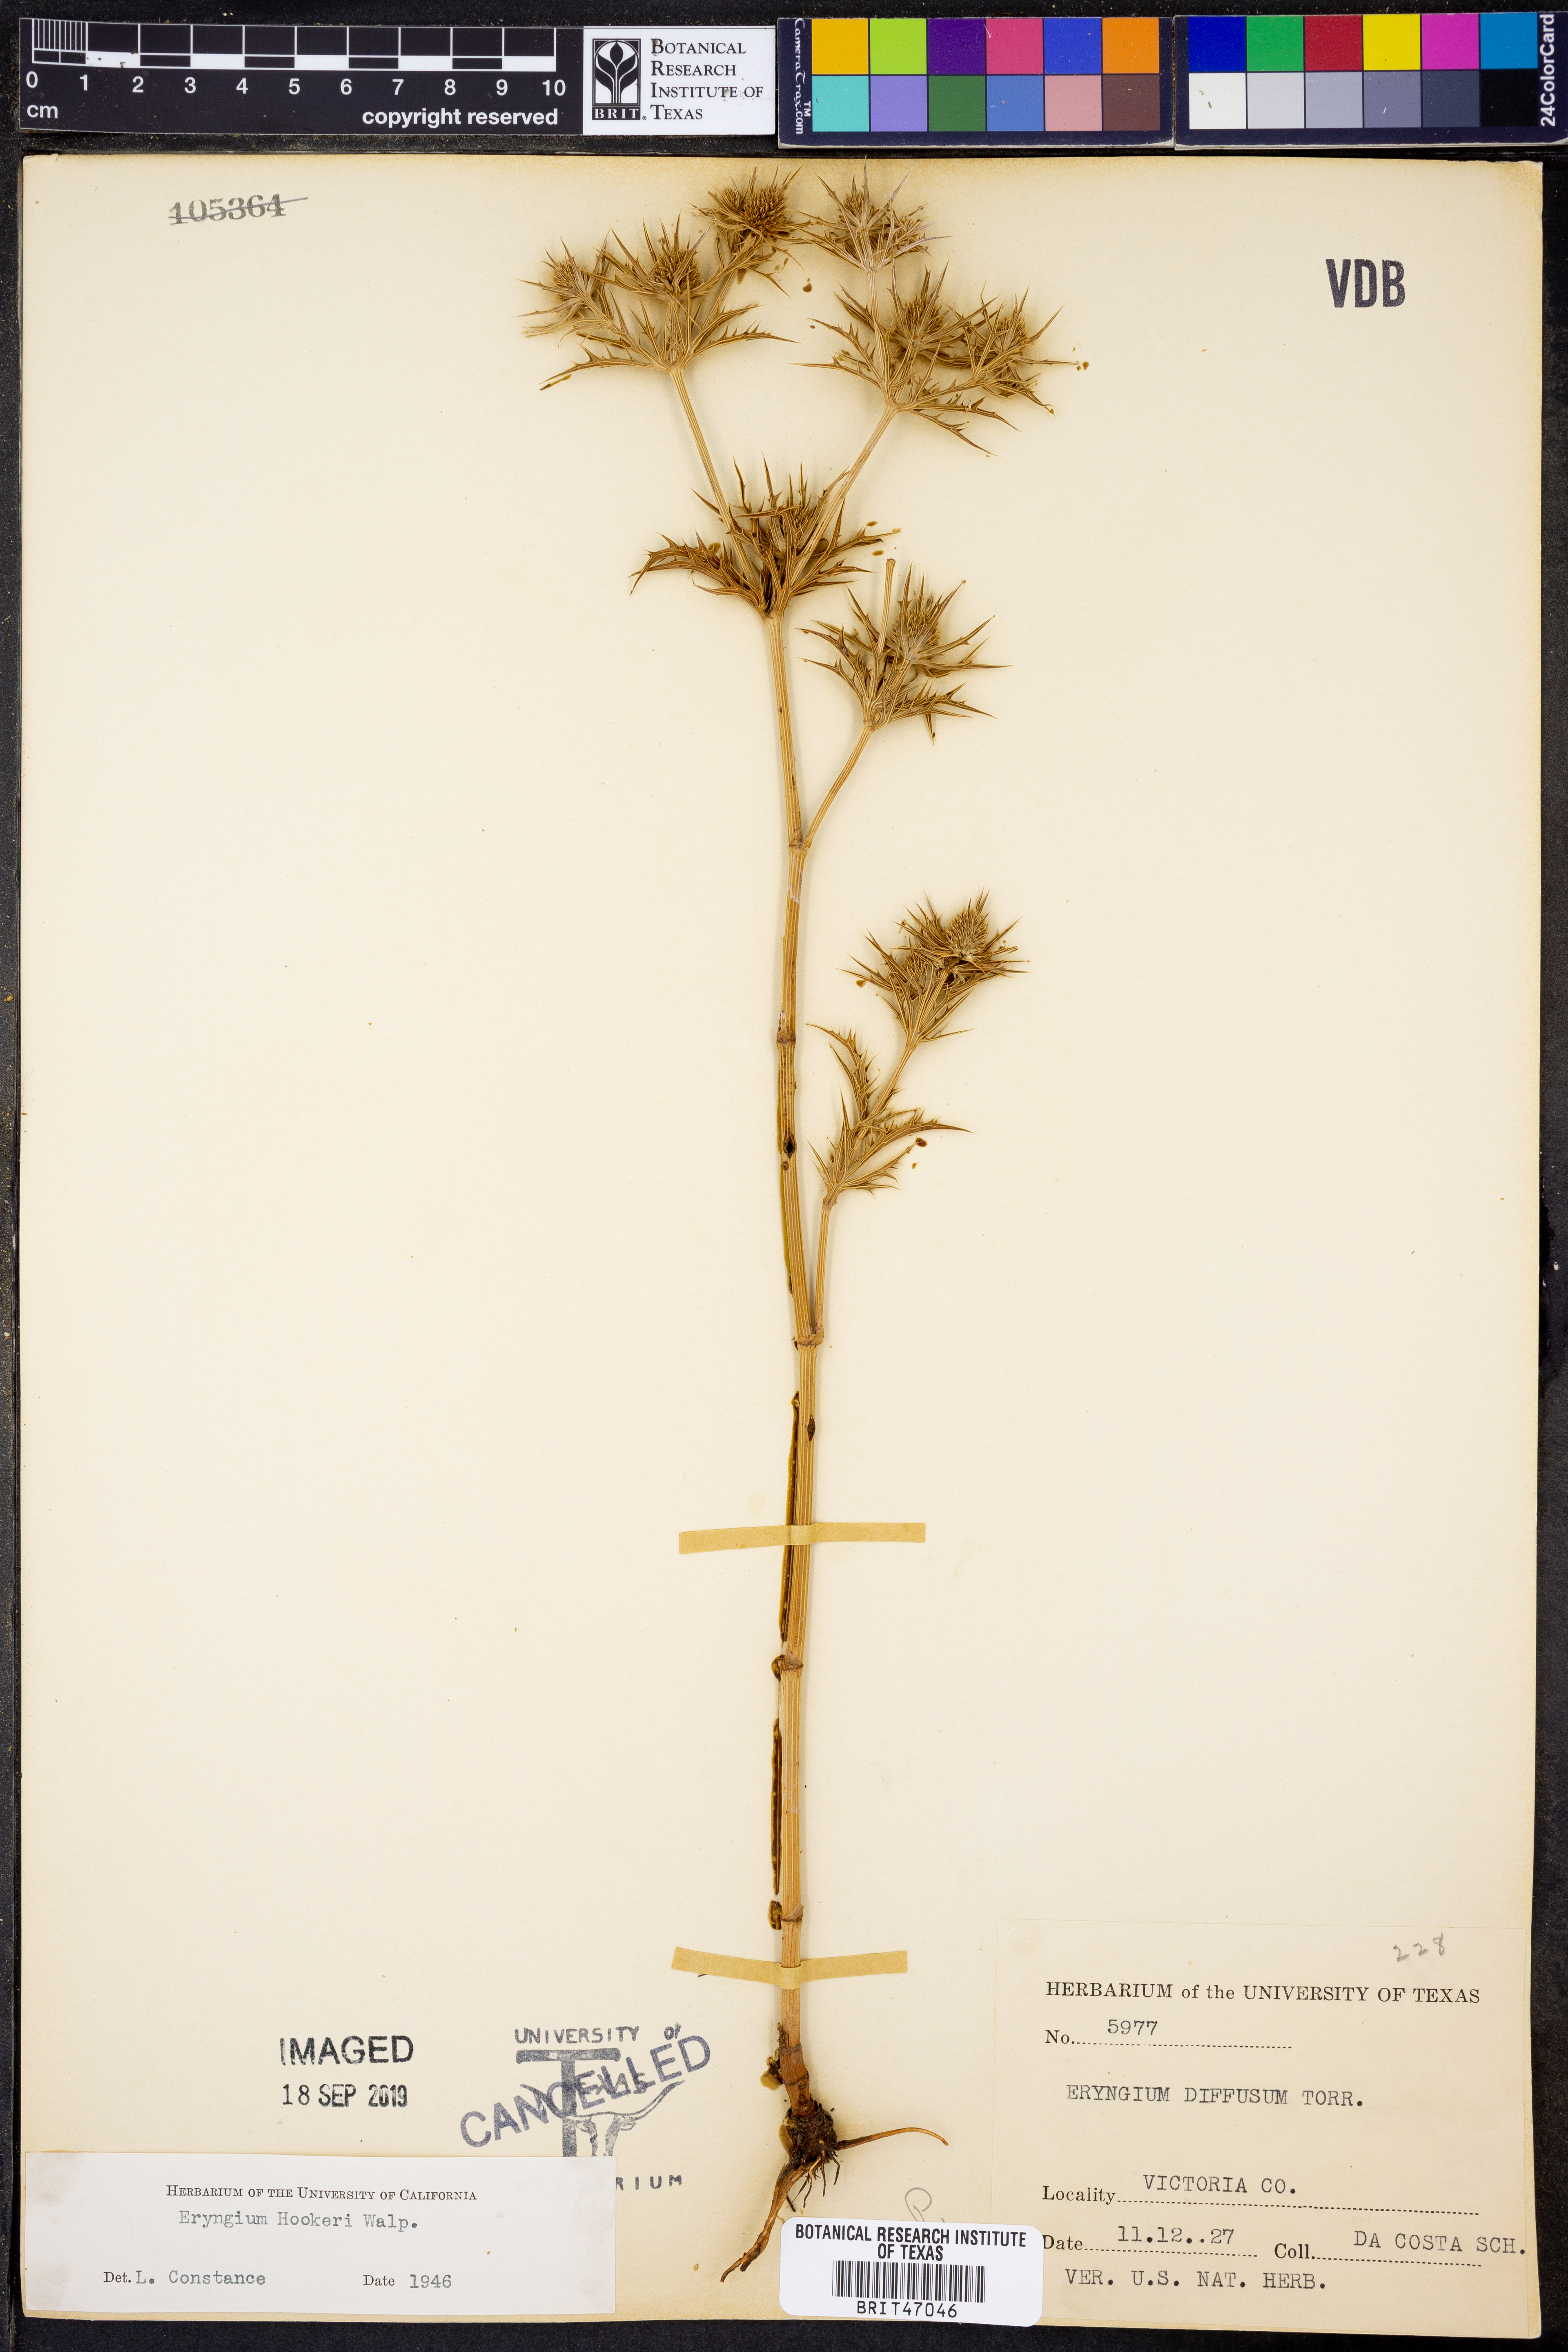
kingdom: Plantae
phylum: Tracheophyta
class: Magnoliopsida
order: Apiales
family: Apiaceae
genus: Eryngium
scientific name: Eryngium hookeri
